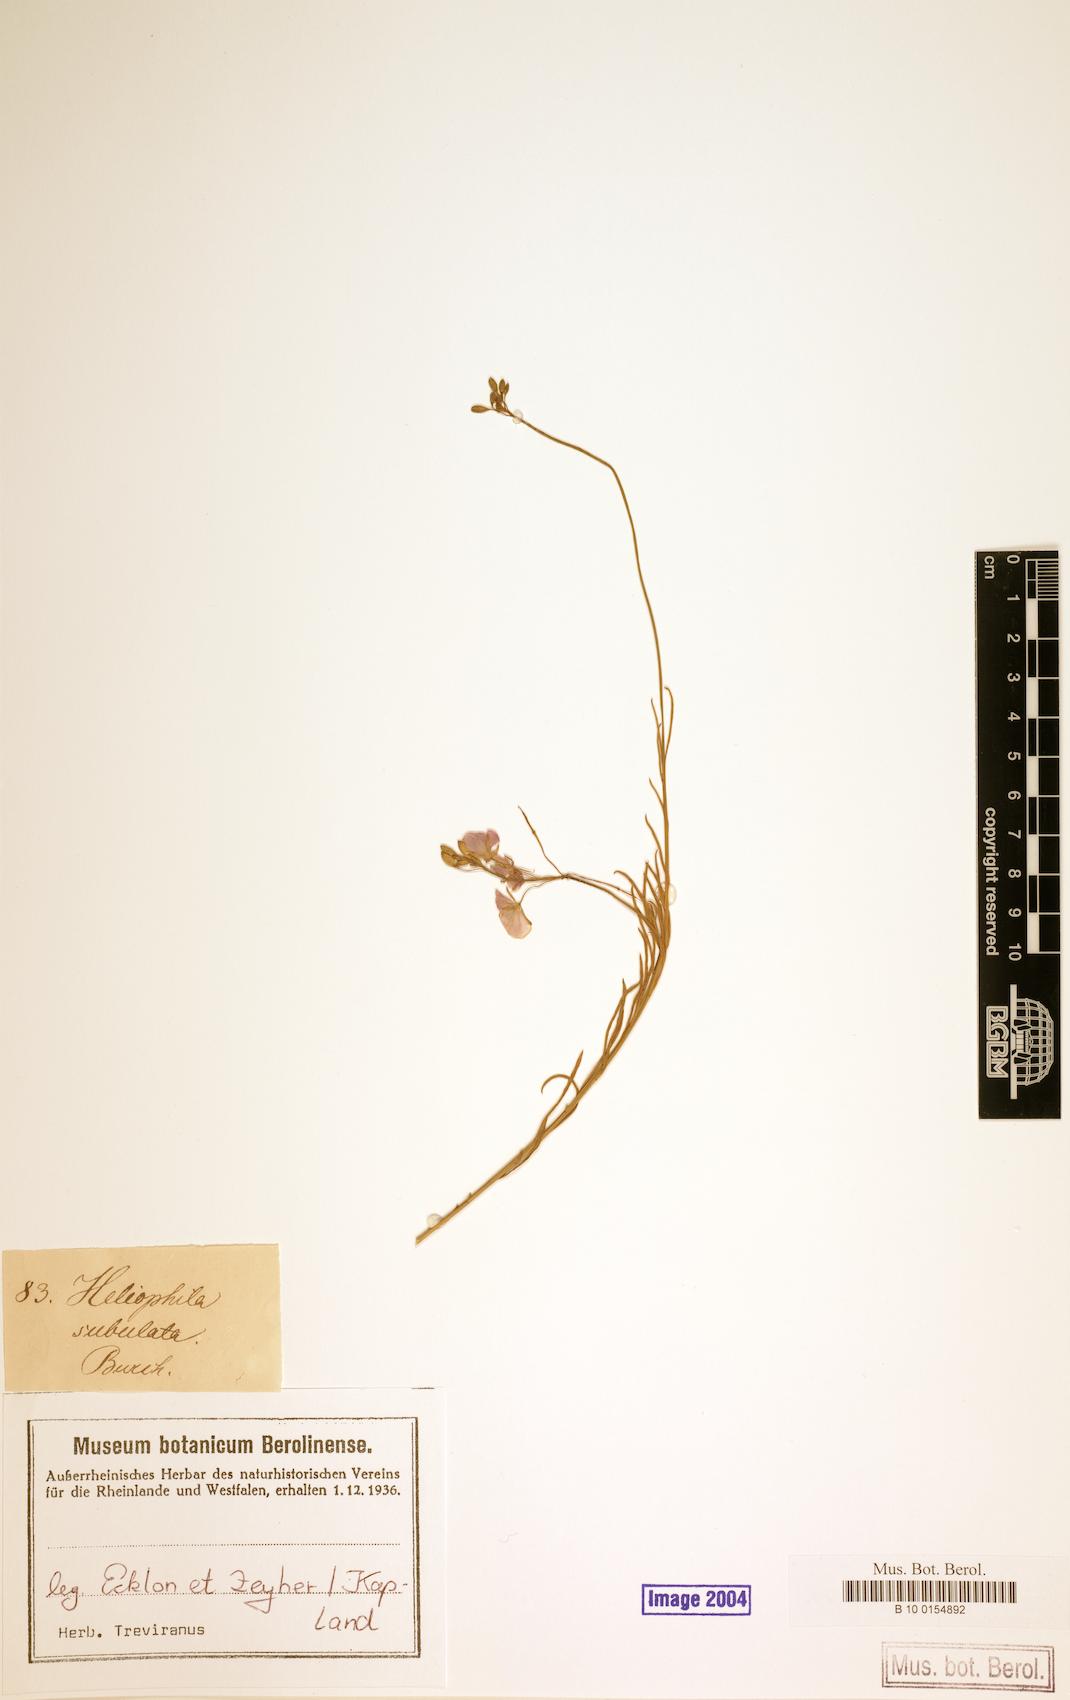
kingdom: Plantae
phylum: Tracheophyta
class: Magnoliopsida
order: Brassicales
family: Brassicaceae
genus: Heliophila
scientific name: Heliophila subulata
